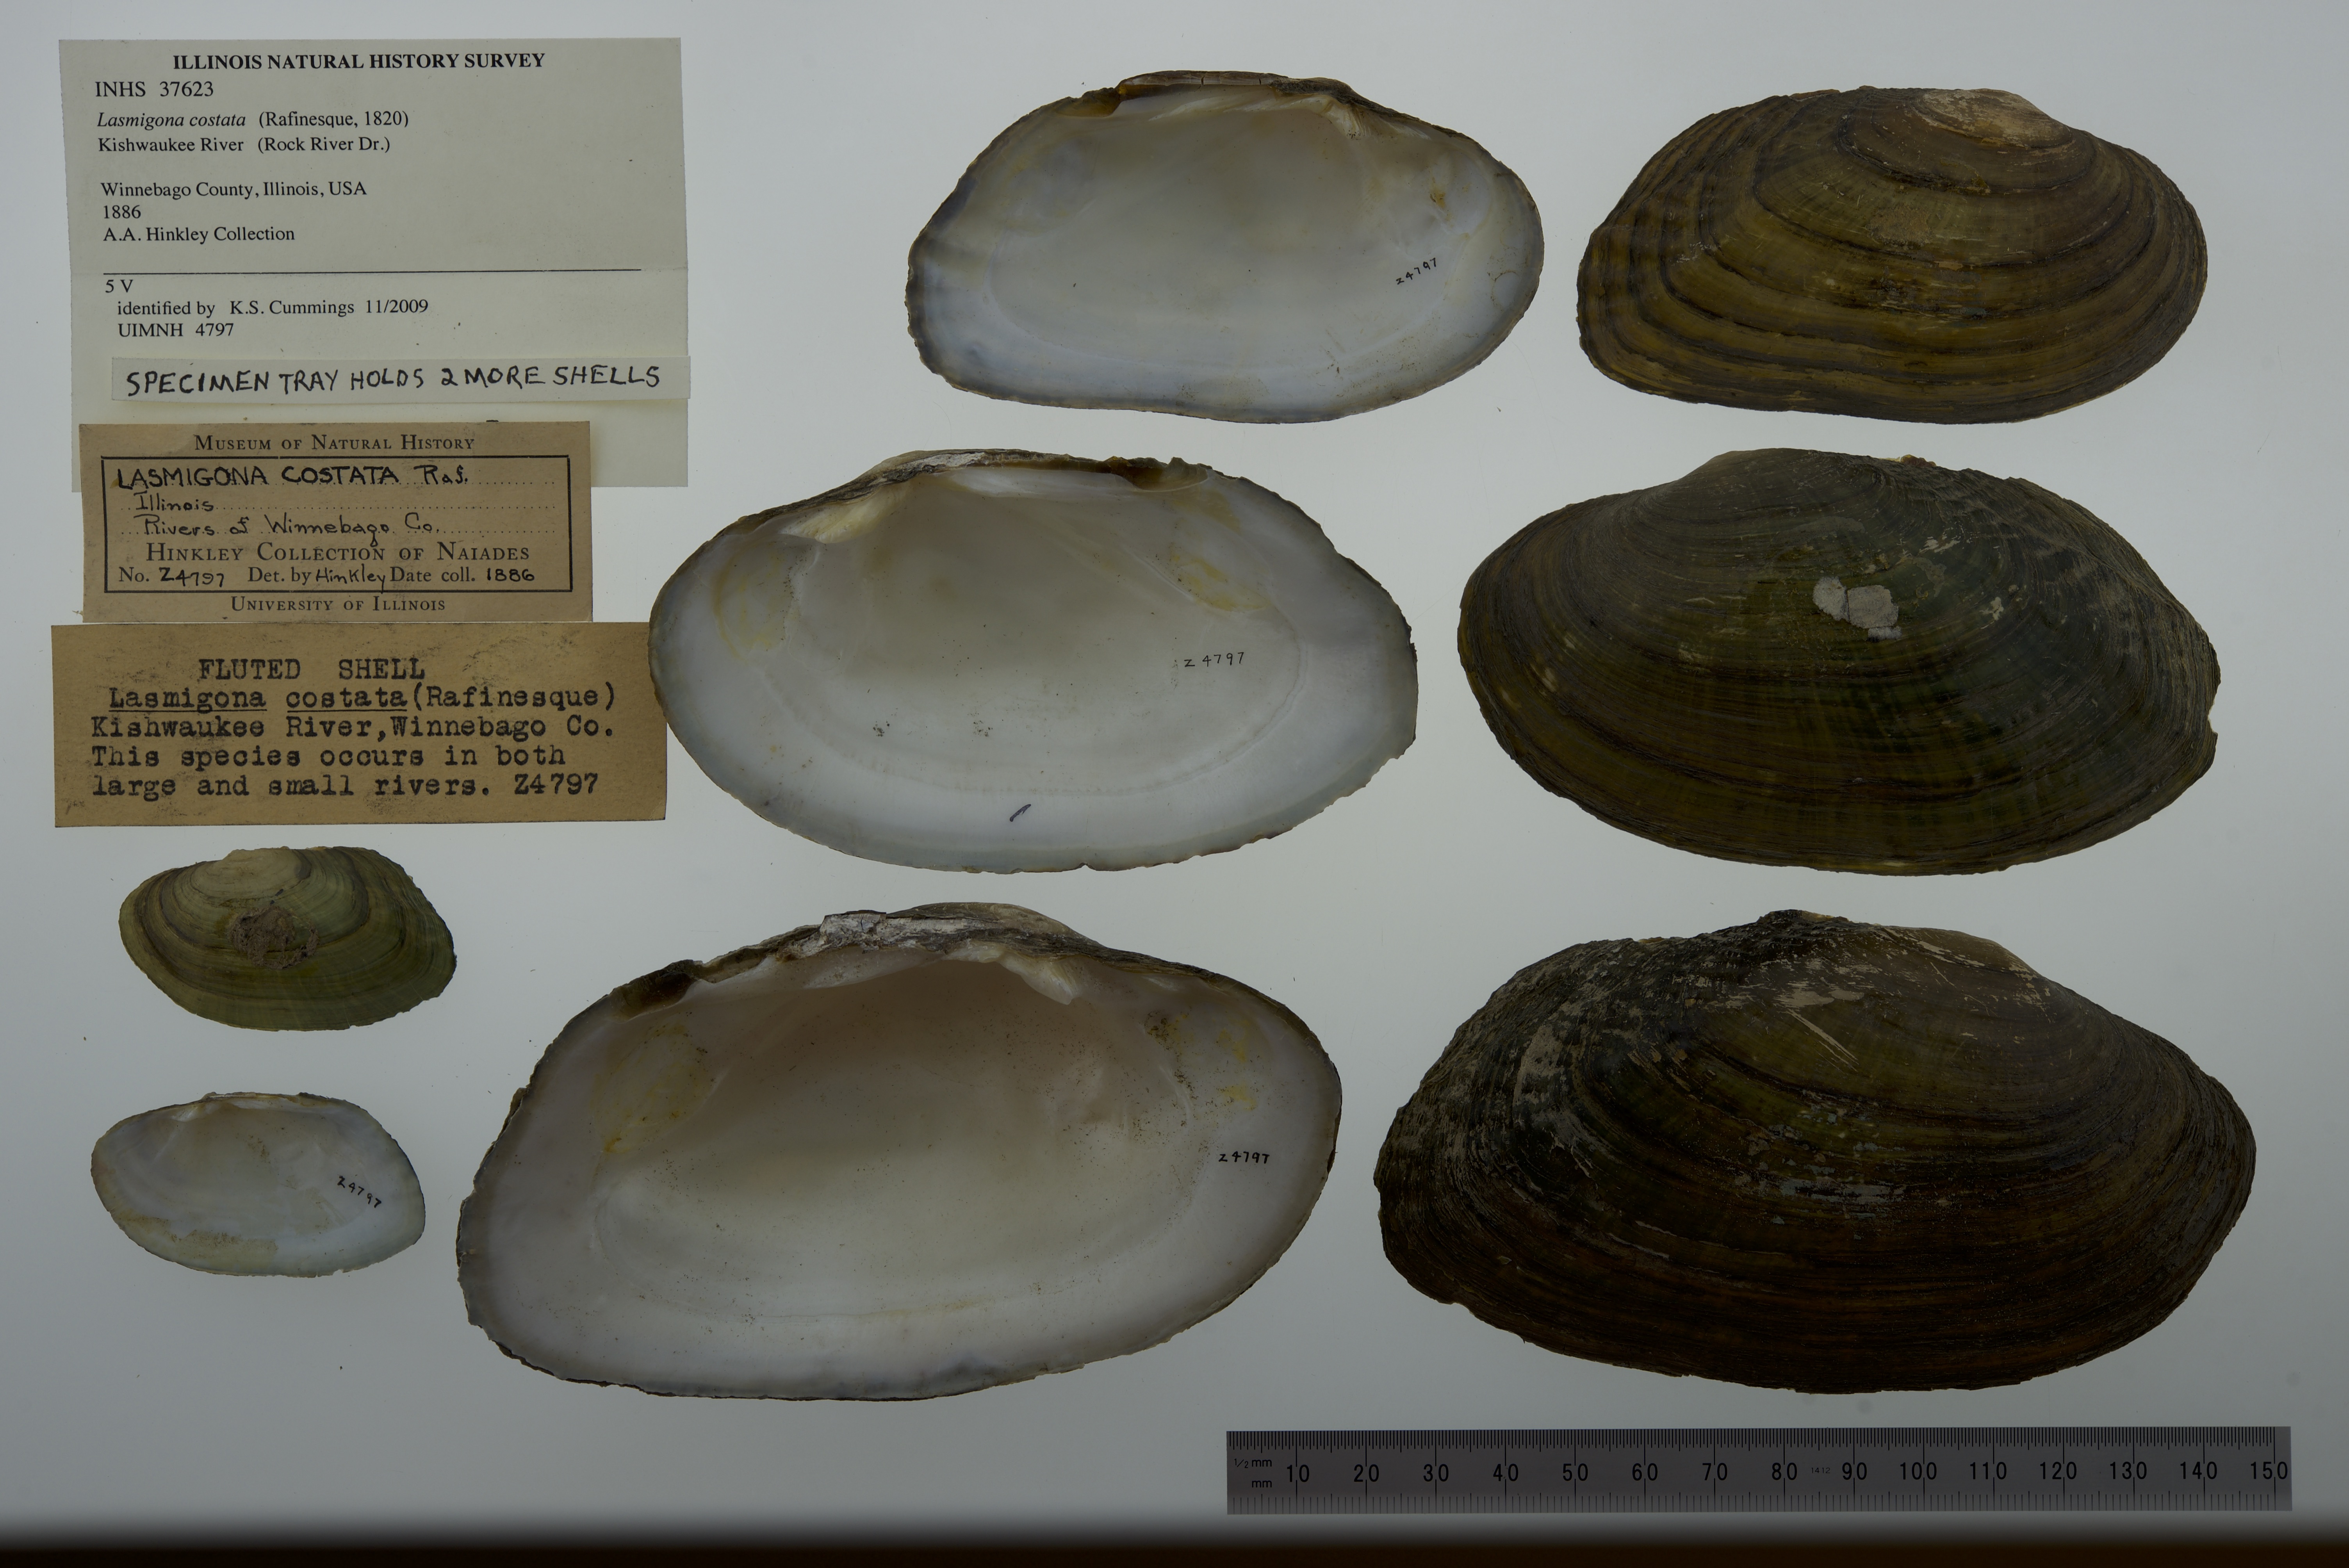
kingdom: Animalia
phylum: Mollusca
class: Bivalvia
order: Unionida
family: Unionidae
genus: Lasmigona
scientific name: Lasmigona costata
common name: Flutedshell
